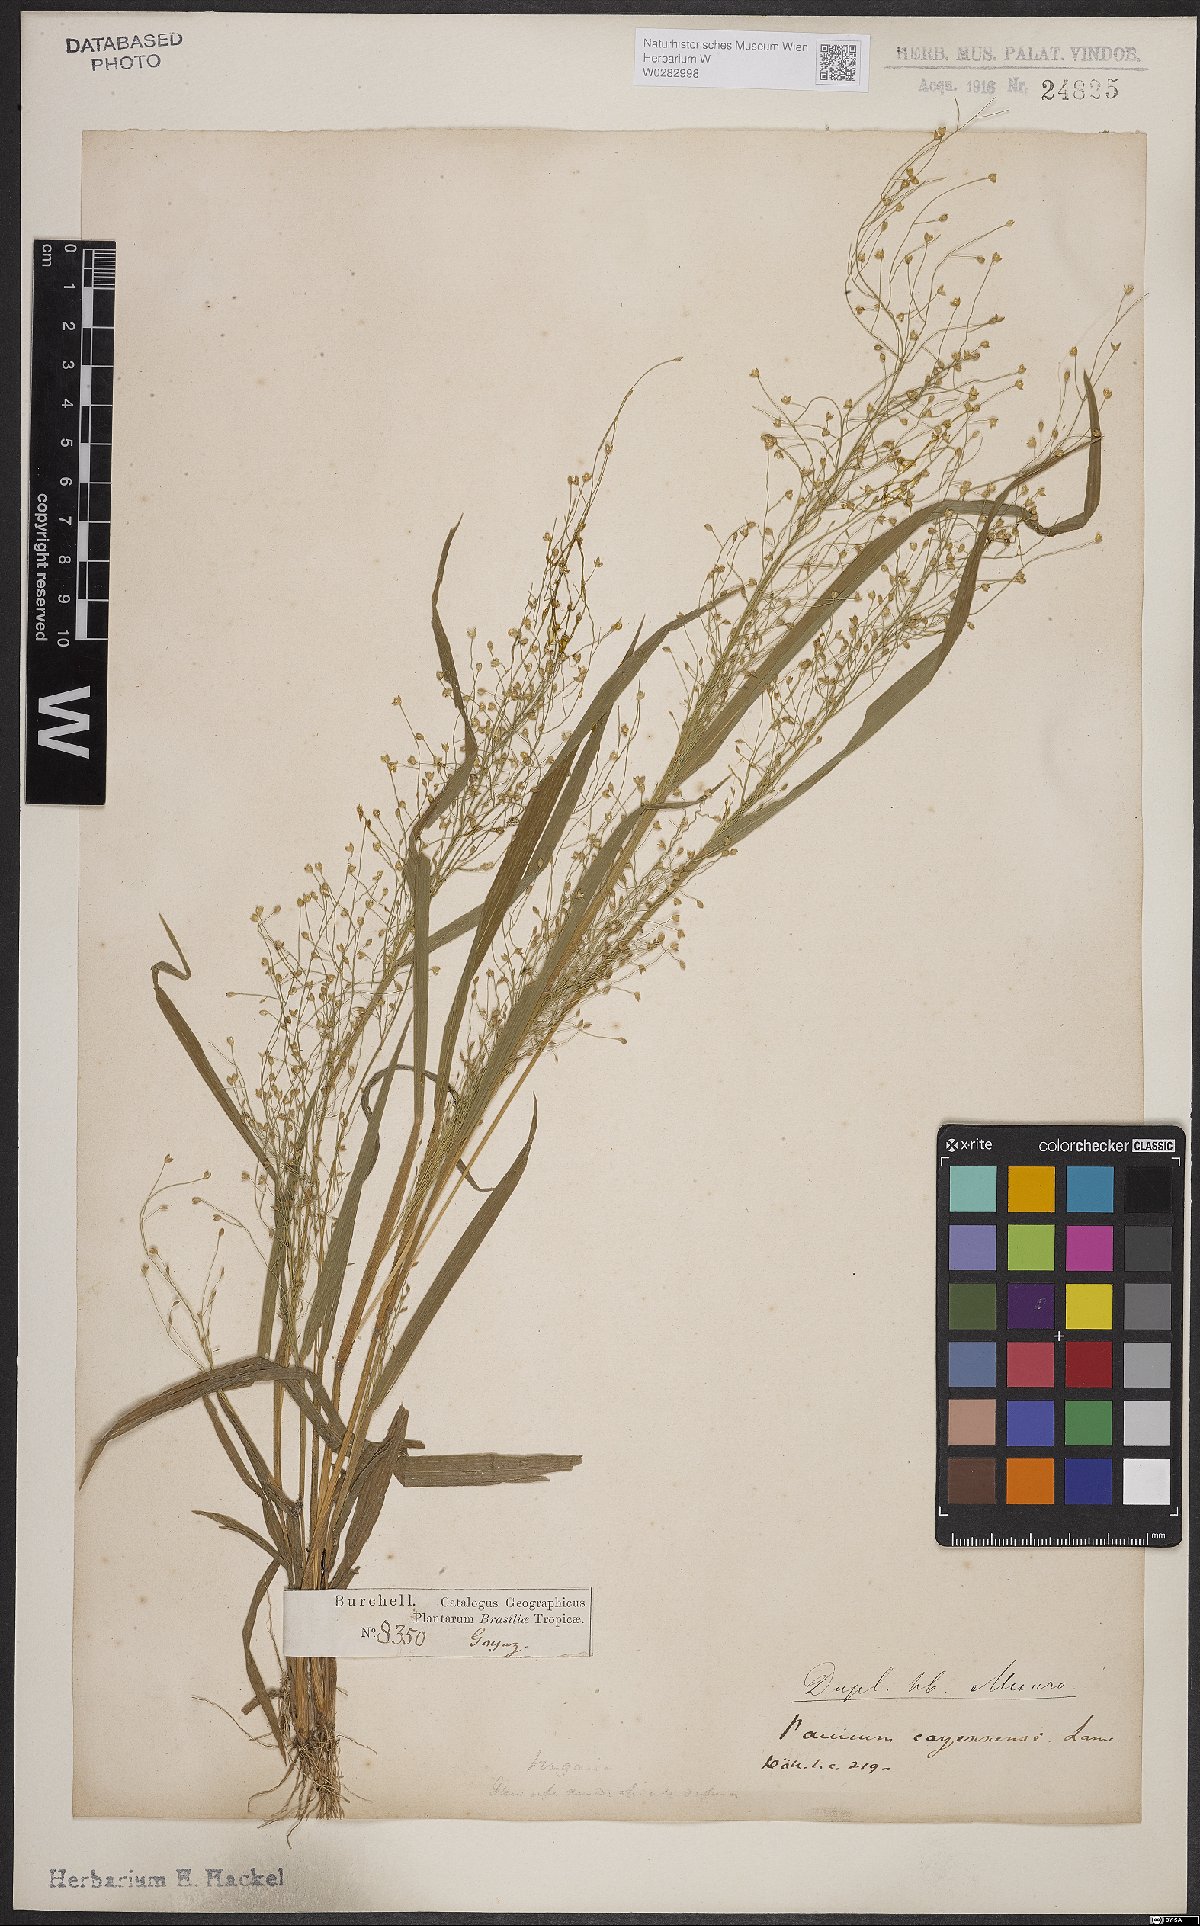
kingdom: Plantae
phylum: Tracheophyta
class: Liliopsida
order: Poales
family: Poaceae
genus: Panicum
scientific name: Panicum cayennense
